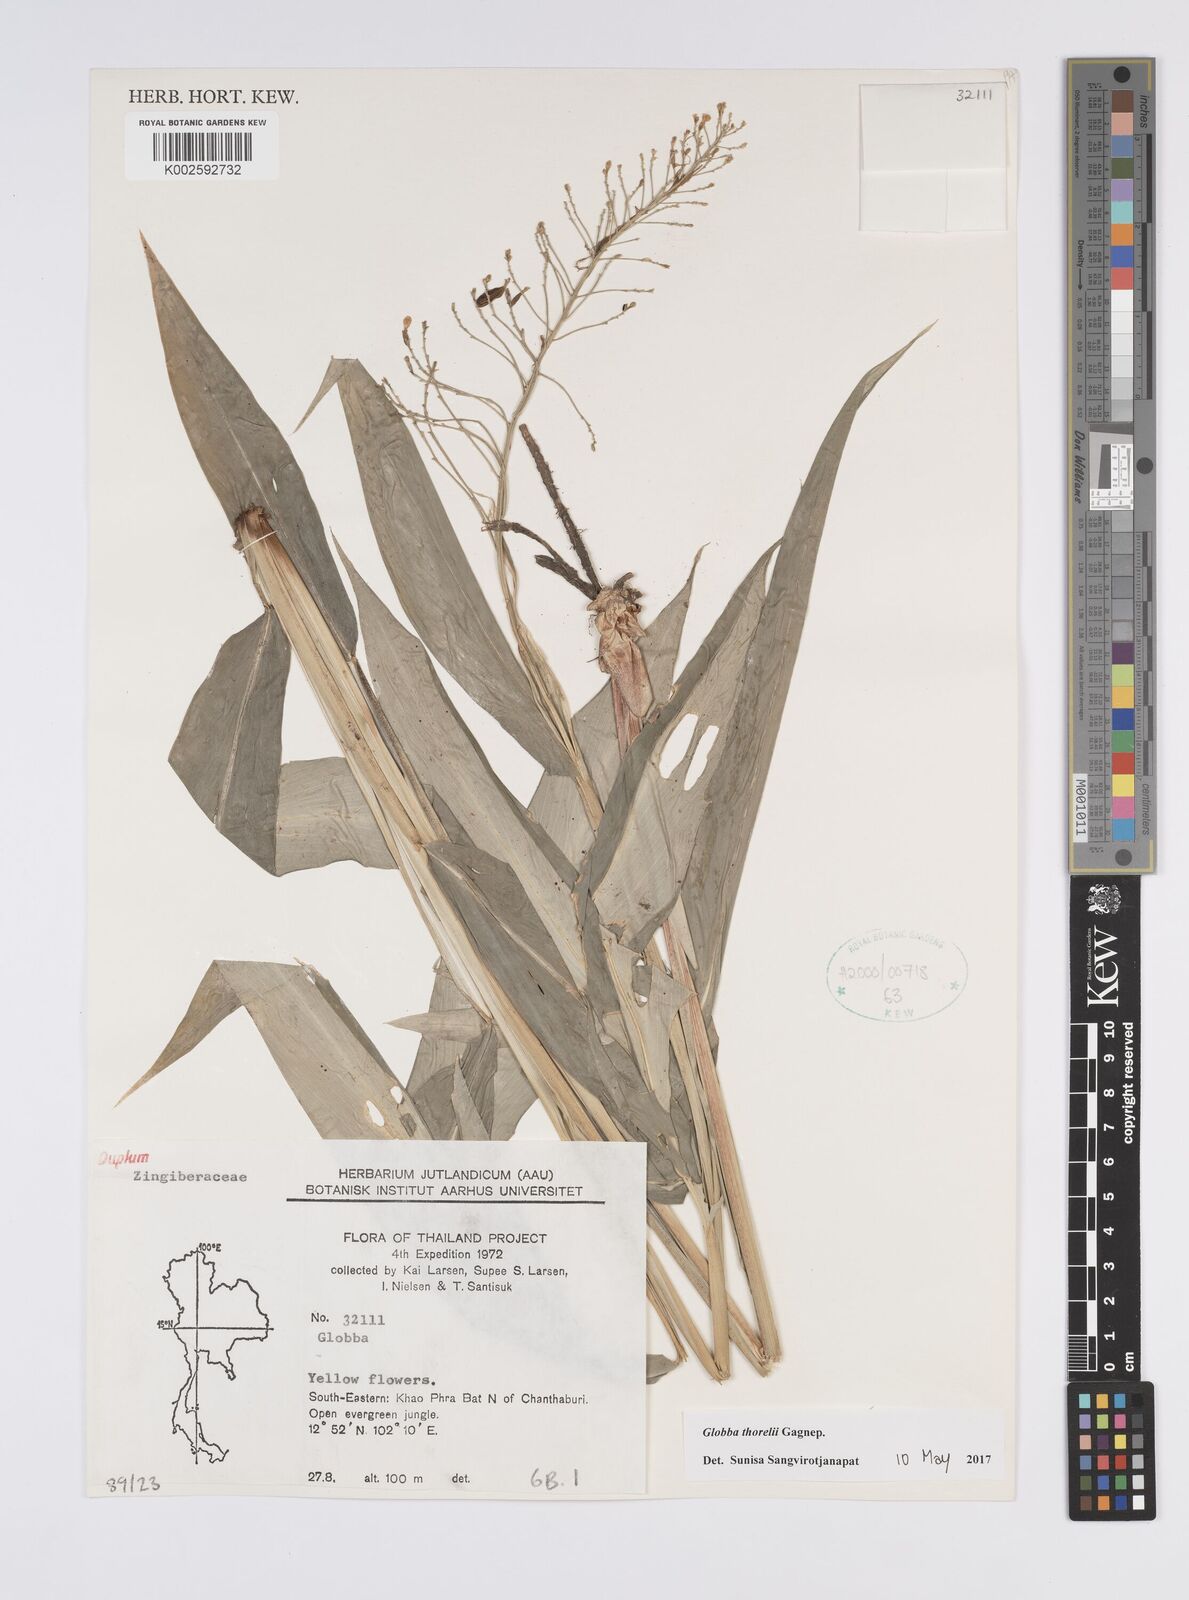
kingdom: Plantae
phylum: Tracheophyta
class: Liliopsida
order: Zingiberales
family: Zingiberaceae
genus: Globba
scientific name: Globba thorelii
